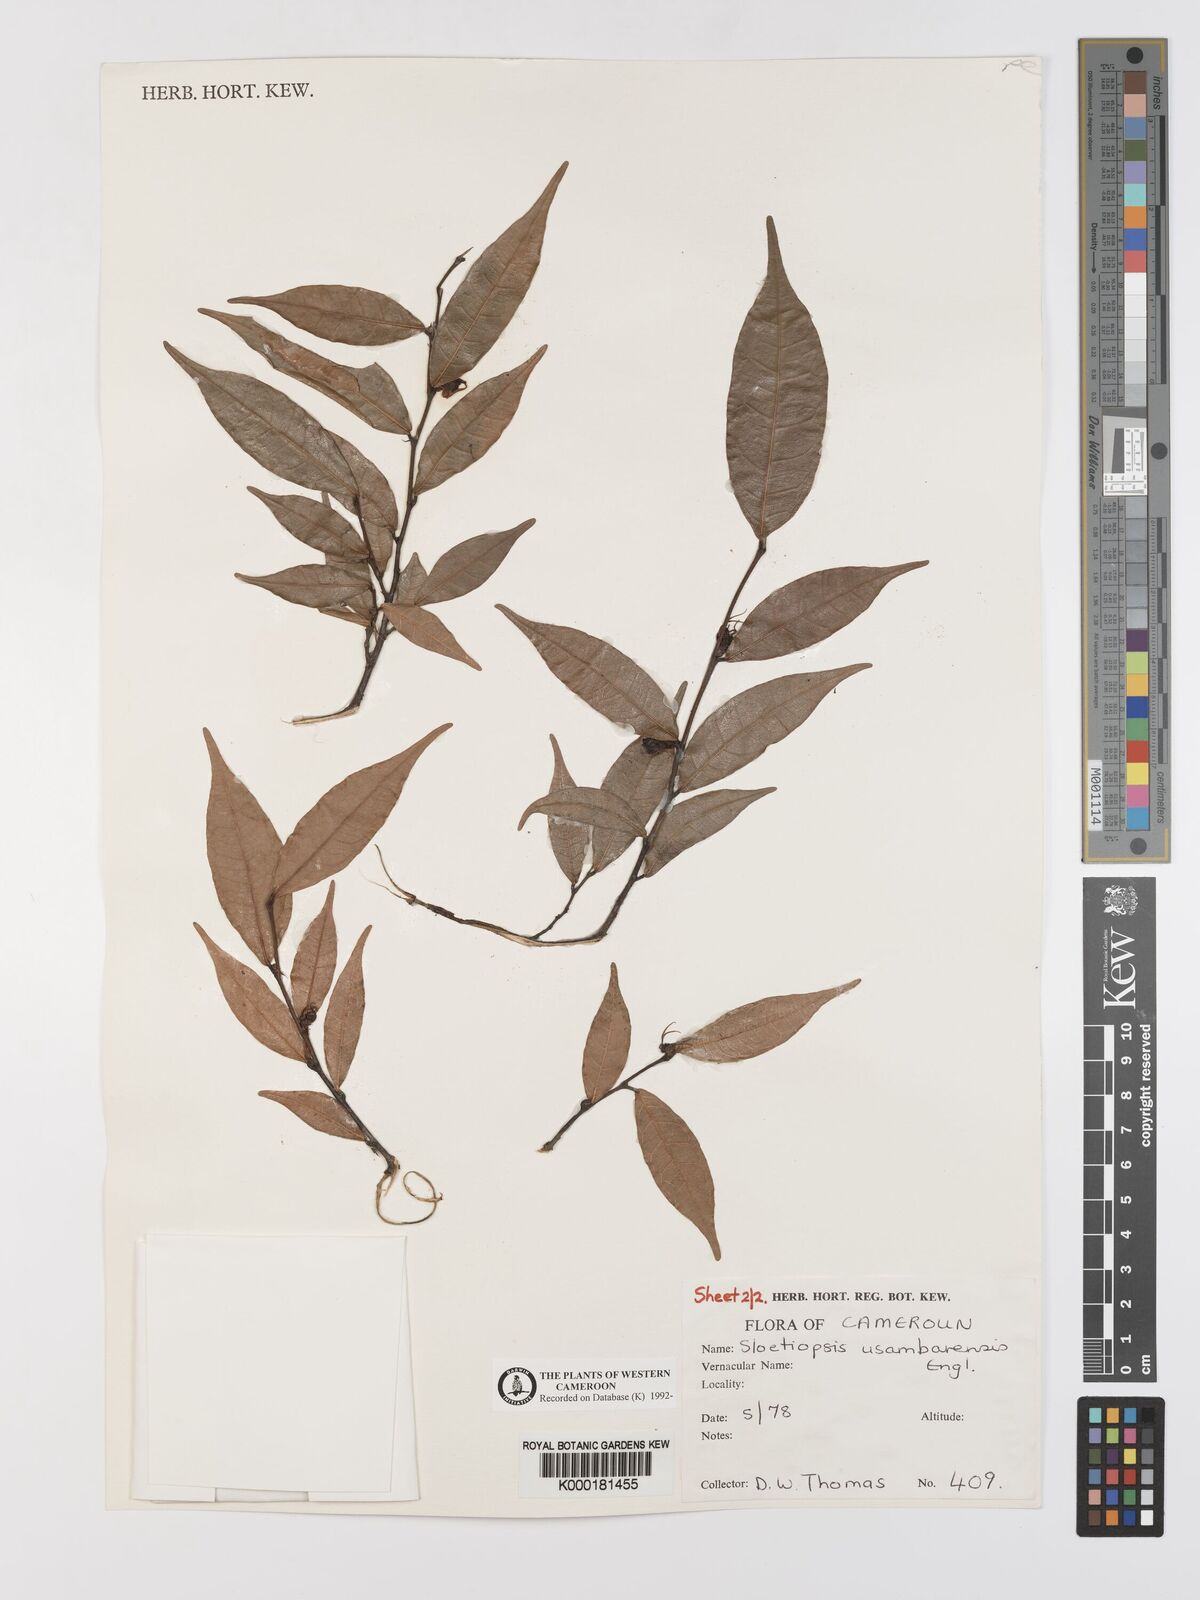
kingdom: Plantae
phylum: Tracheophyta
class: Magnoliopsida
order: Rosales
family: Moraceae
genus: Sloetiopsis
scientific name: Sloetiopsis usambarensis
